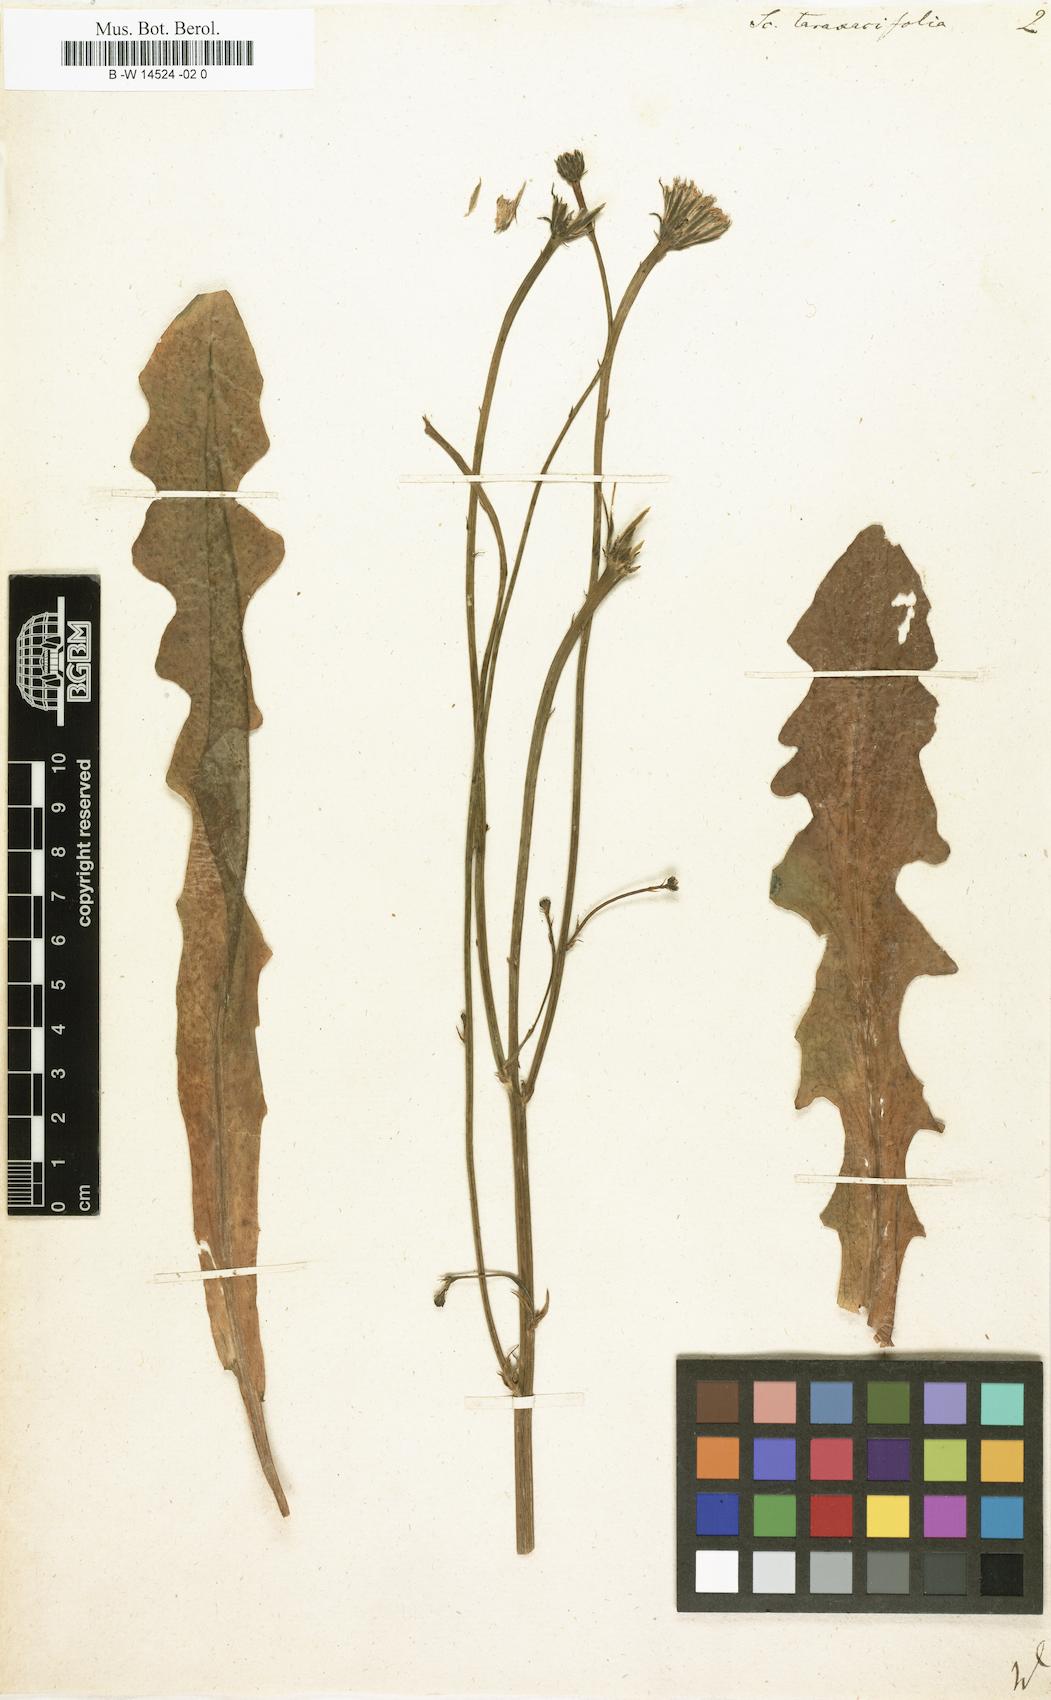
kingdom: Plantae
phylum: Tracheophyta
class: Magnoliopsida
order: Asterales
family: Asteraceae
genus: Hypochaeris
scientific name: Hypochaeris glabra
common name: Smooth catsear
